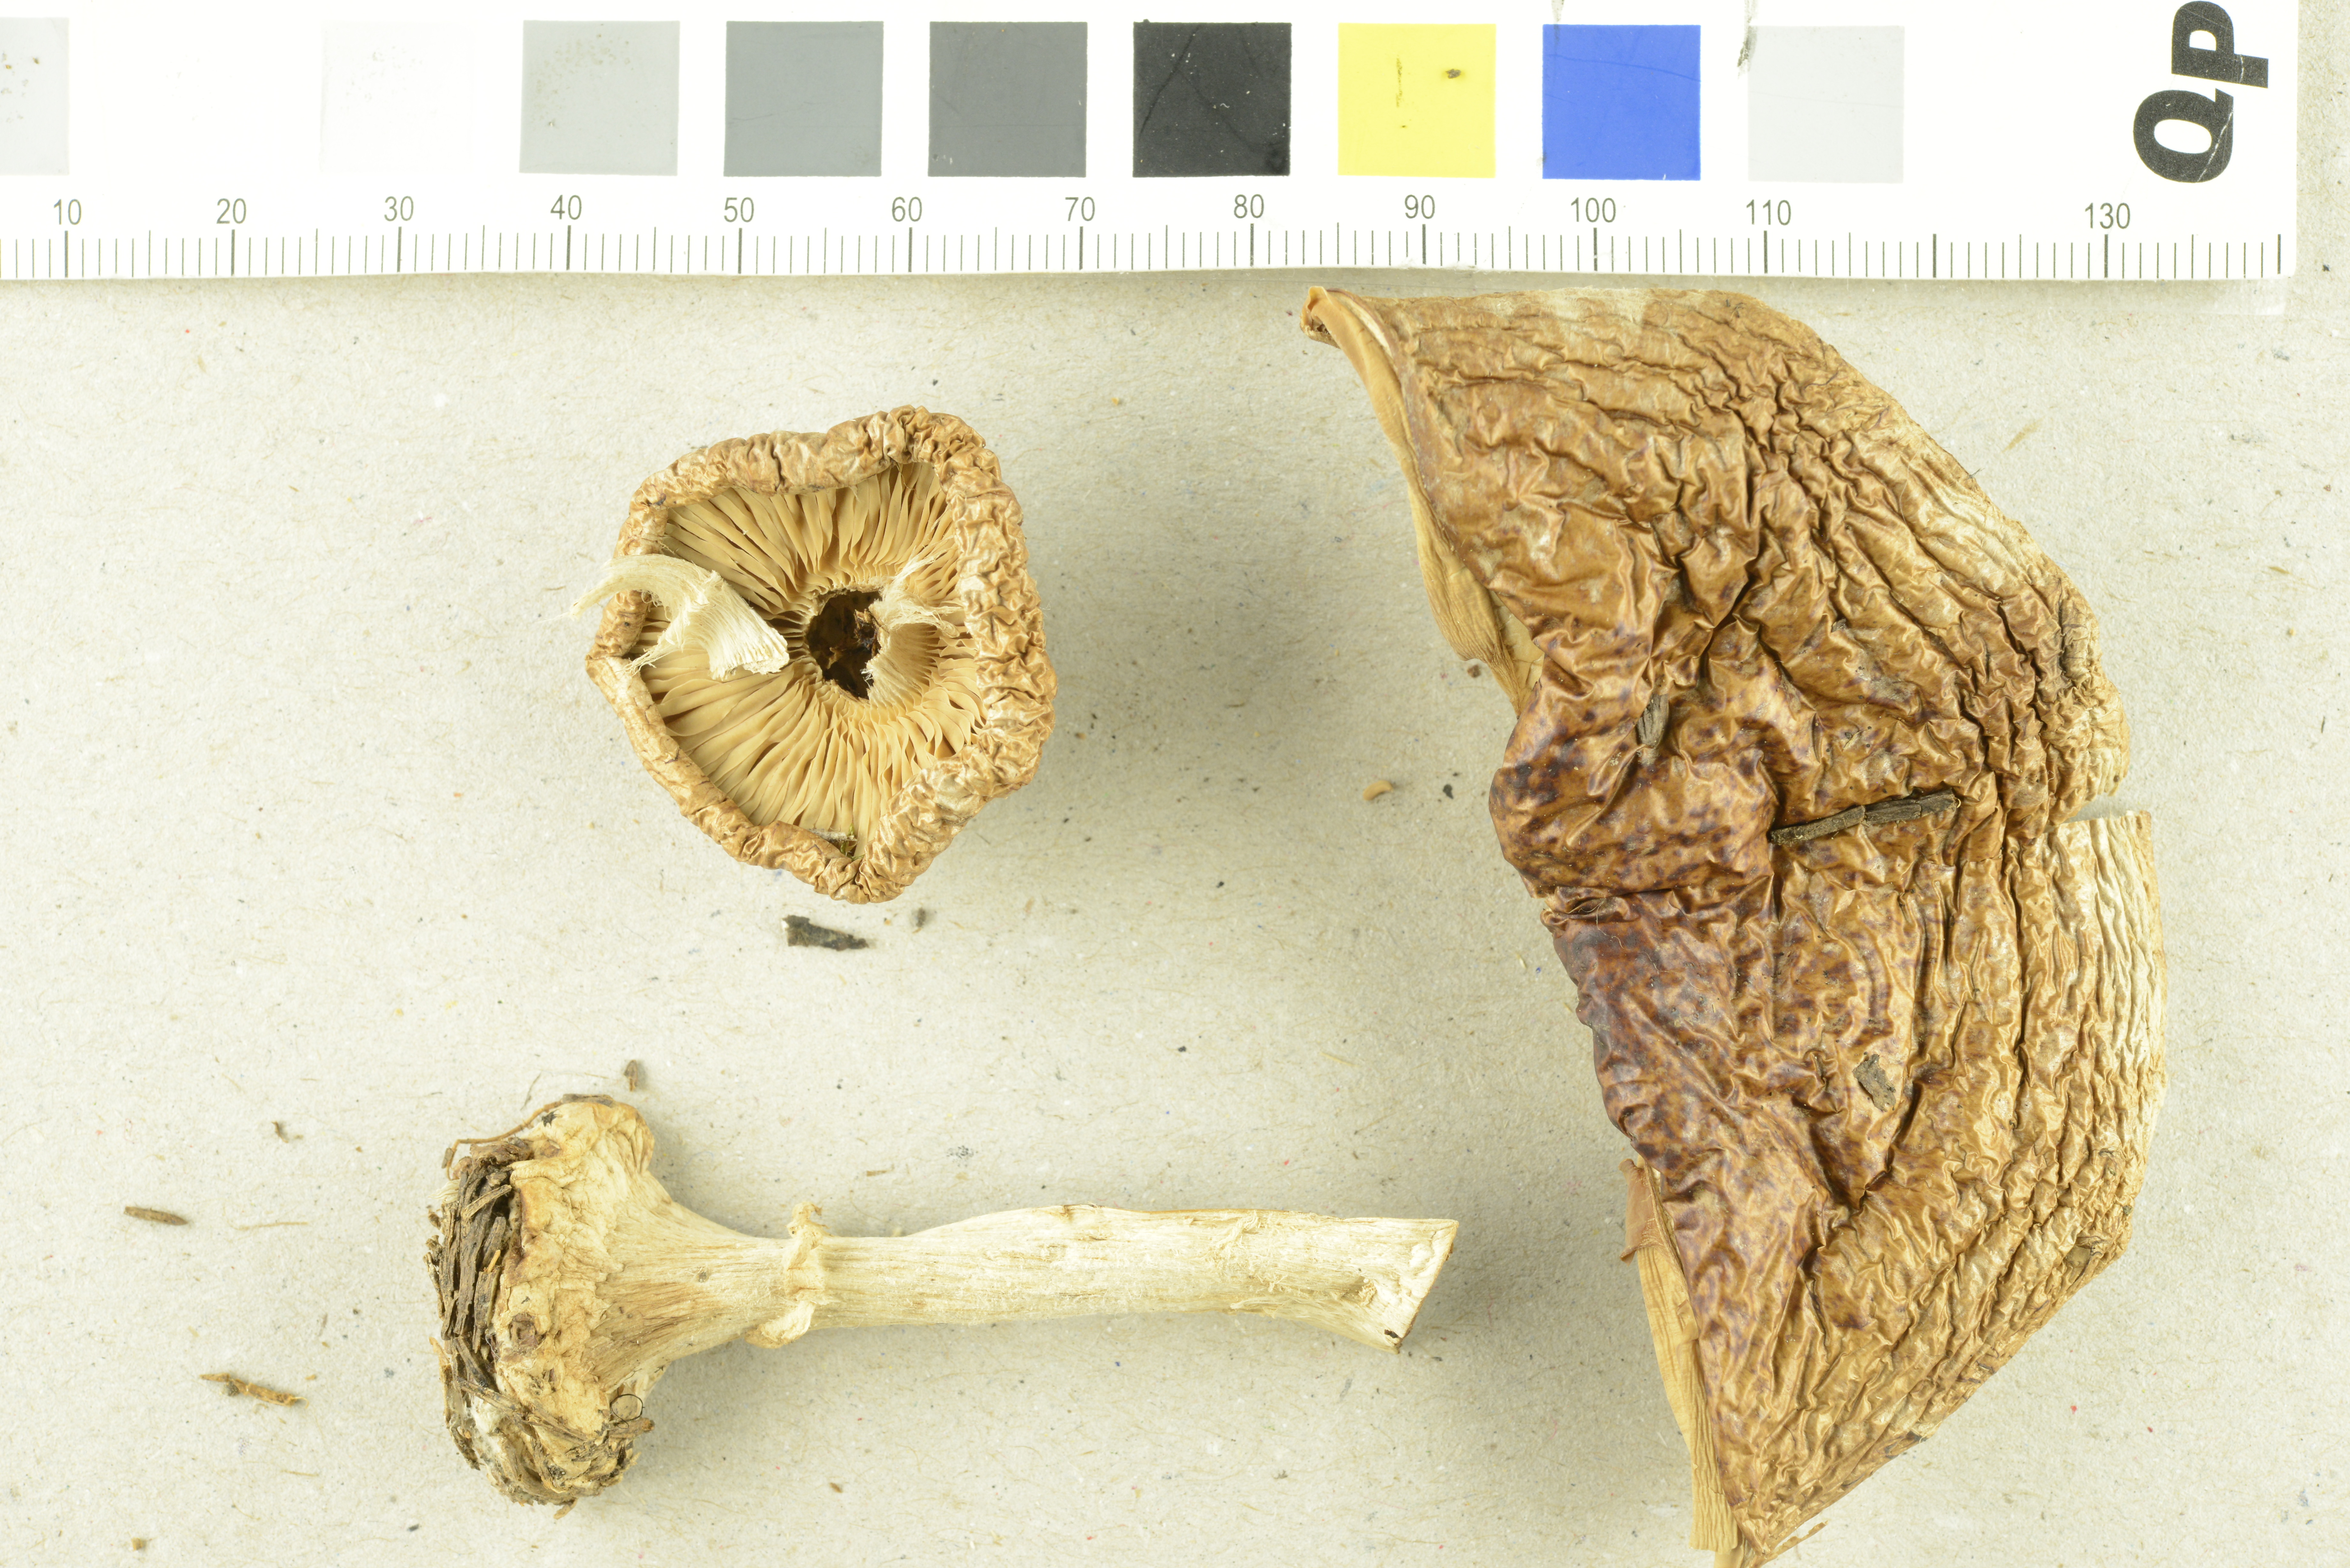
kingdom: Fungi
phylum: Basidiomycota
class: Agaricomycetes
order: Agaricales
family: Tricholomataceae
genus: Leucocortinarius
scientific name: Leucocortinarius bulbiger
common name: White webcap
